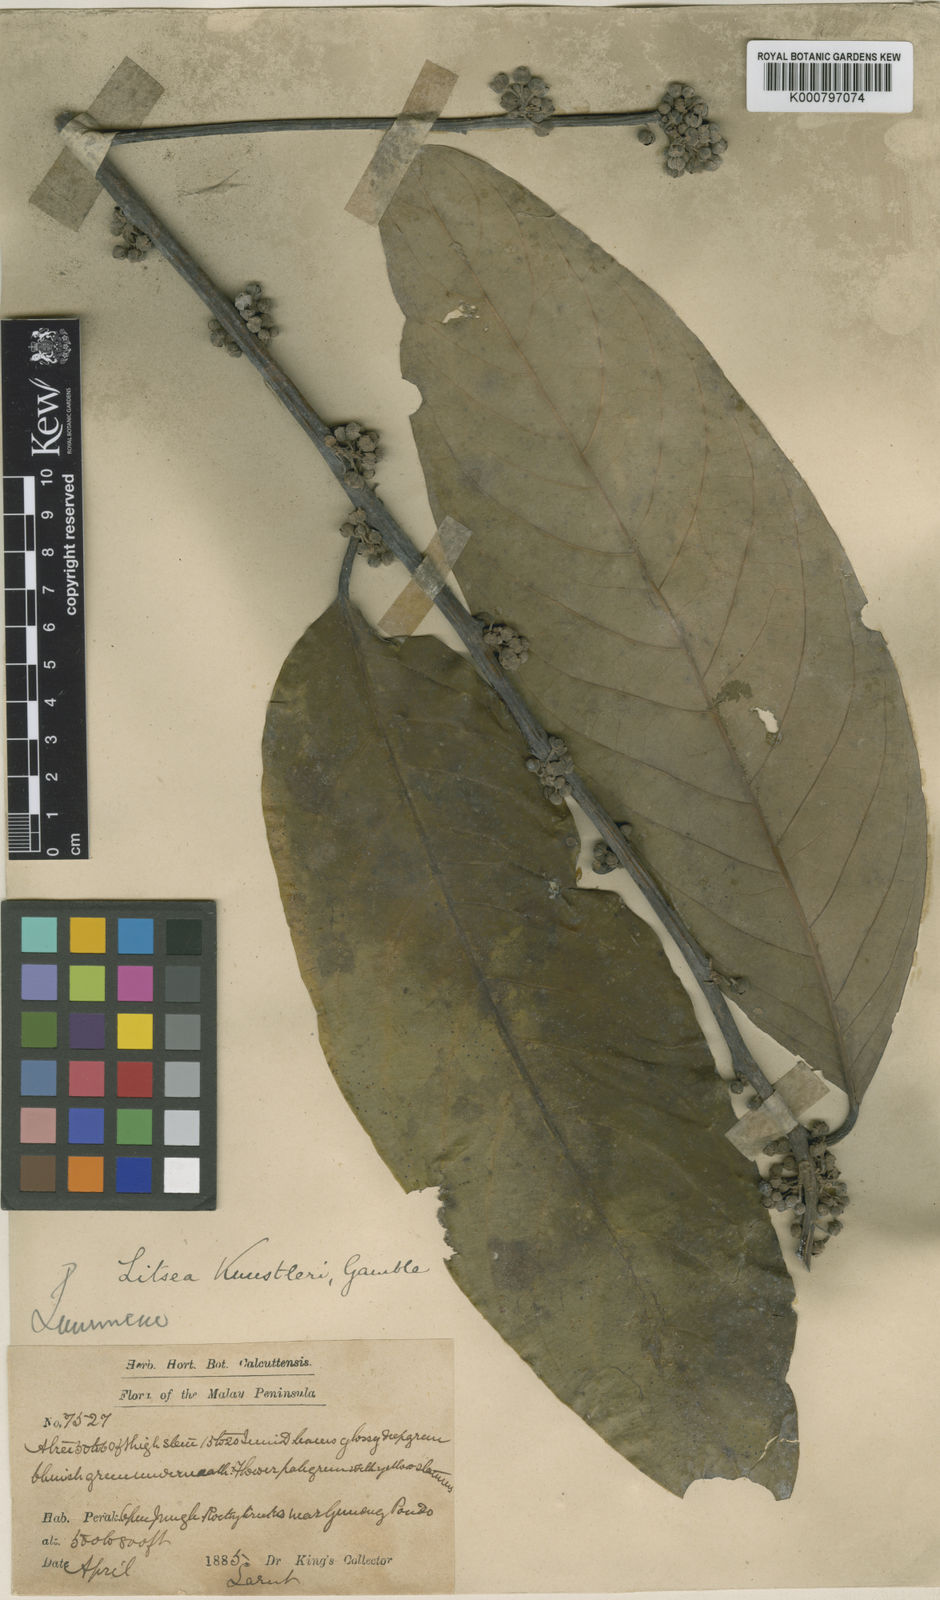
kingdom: Plantae
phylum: Tracheophyta
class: Magnoliopsida
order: Laurales
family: Lauraceae
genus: Litsea
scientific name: Litsea accedens
